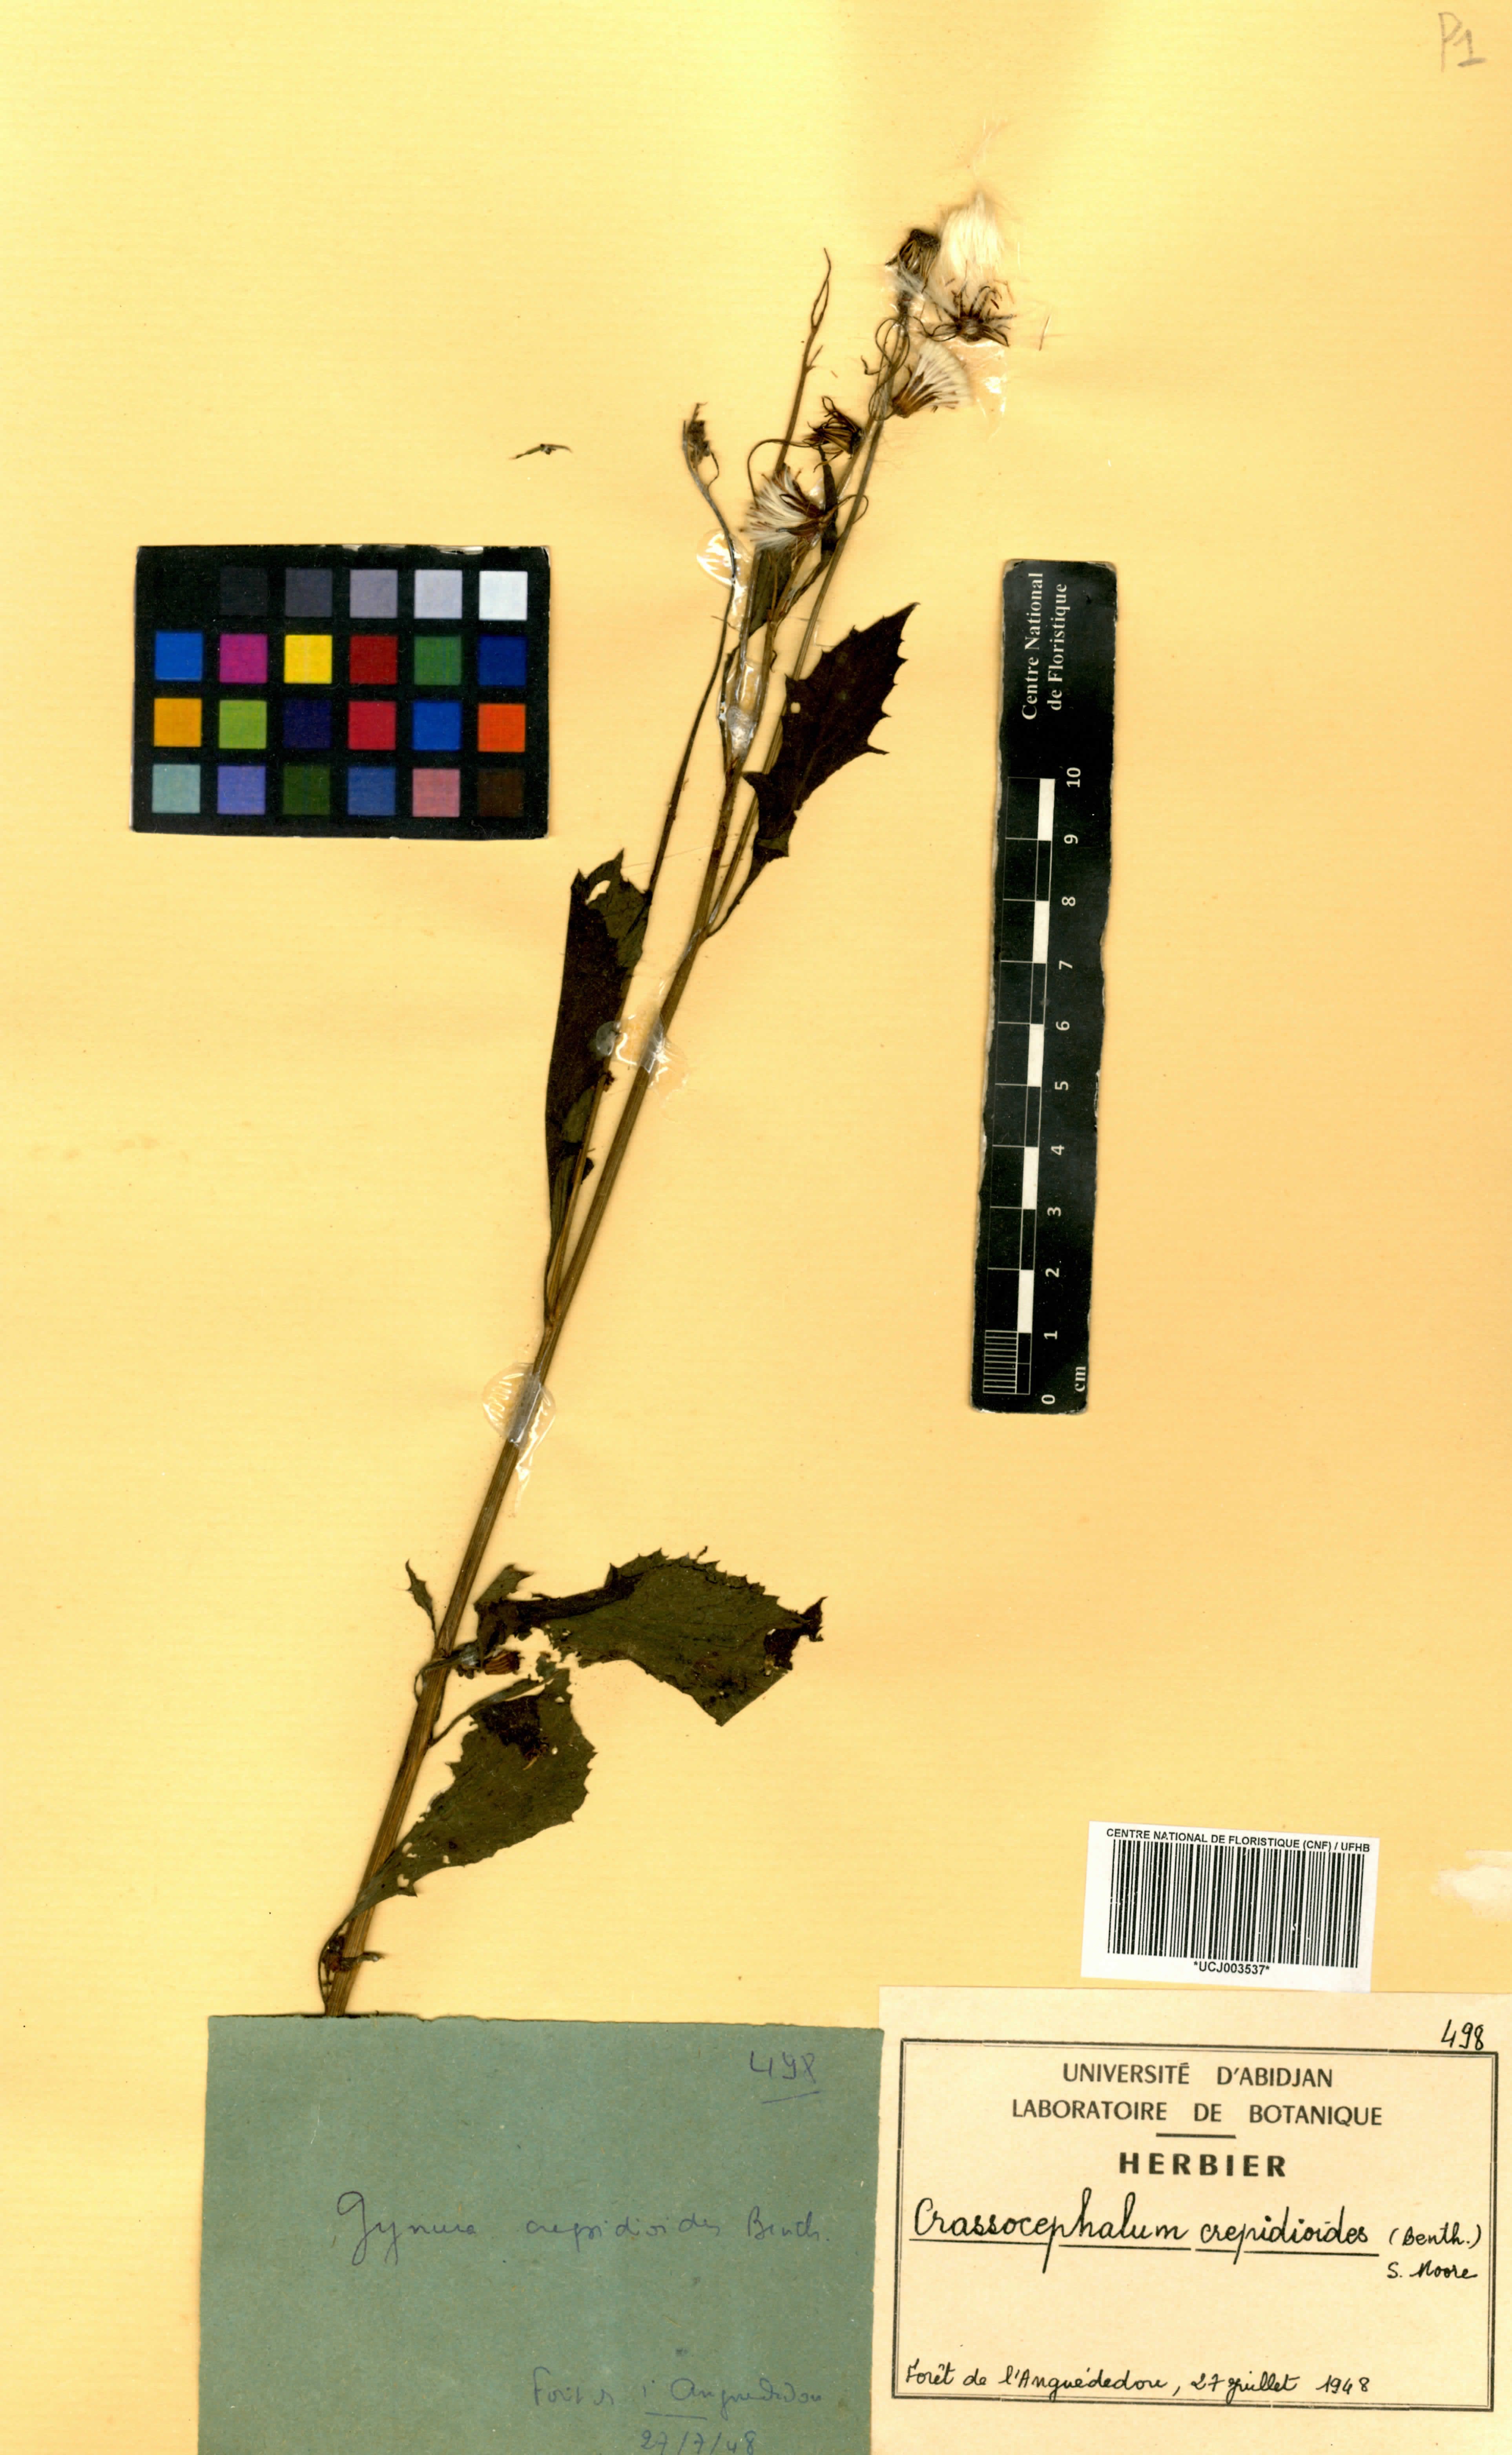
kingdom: Plantae
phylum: Tracheophyta
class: Magnoliopsida
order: Asterales
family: Asteraceae
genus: Crassocephalum
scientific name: Crassocephalum crepidioides
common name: Redflower ragleaf
